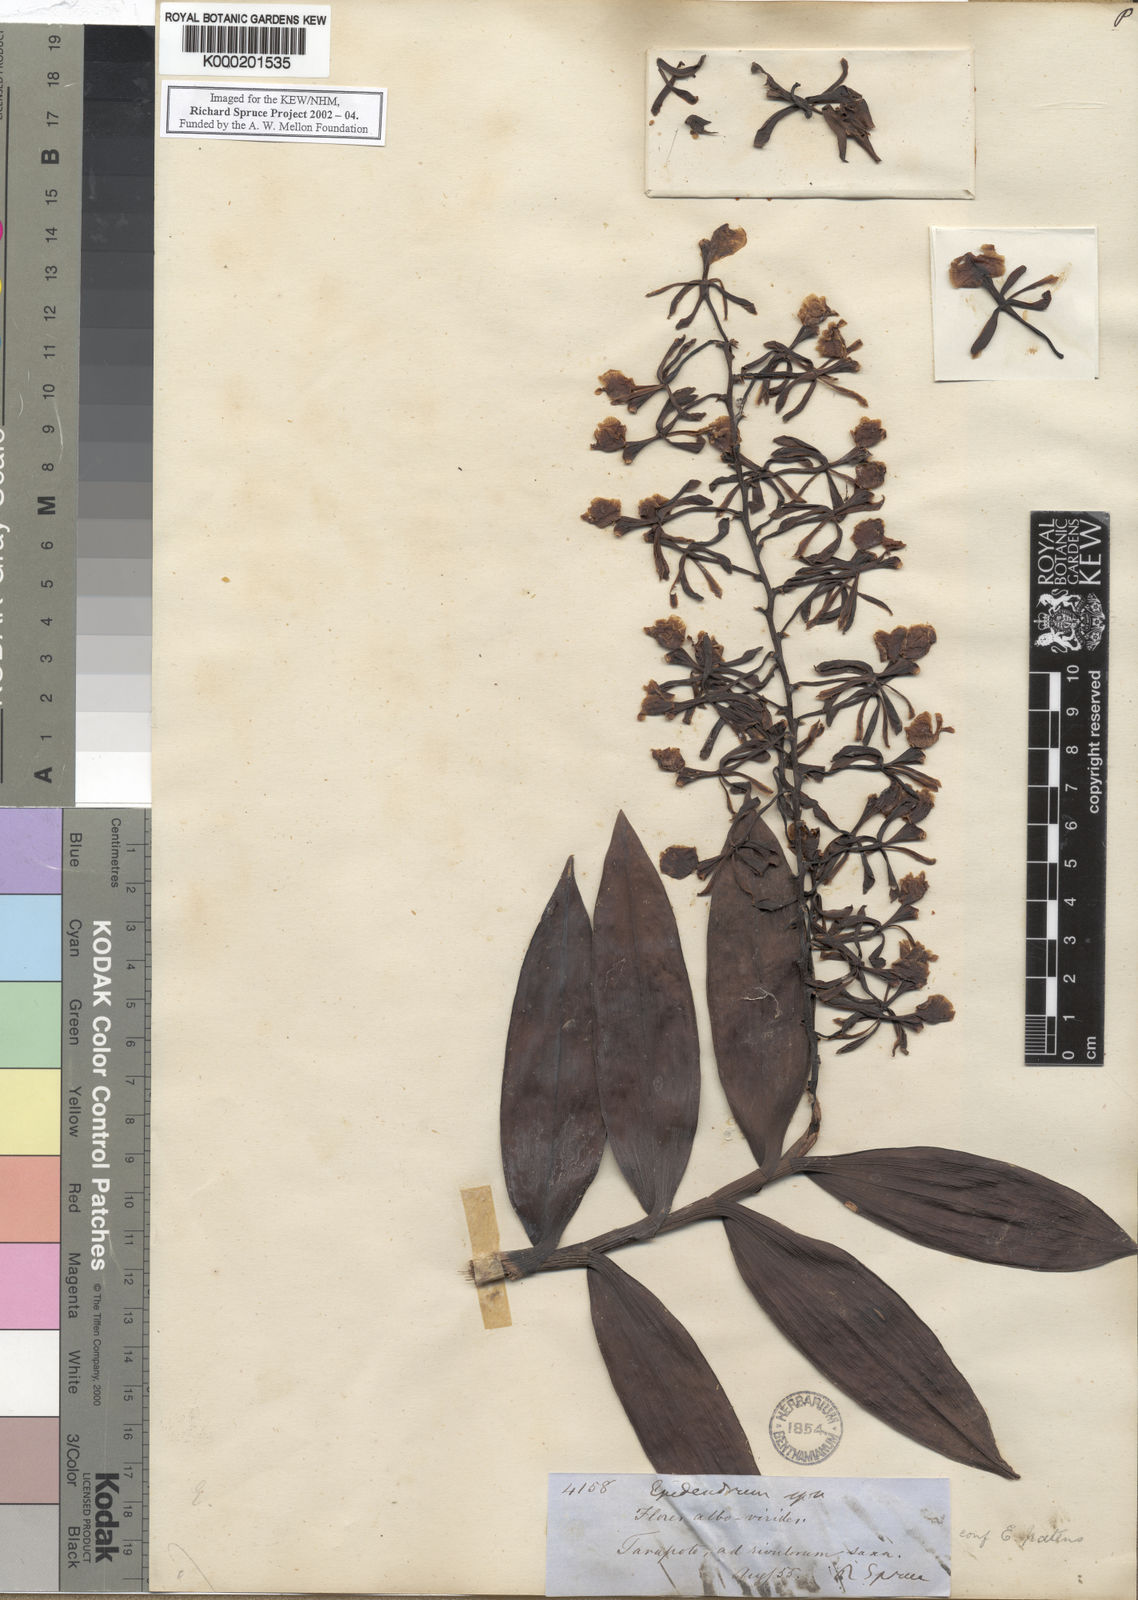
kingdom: Plantae
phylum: Tracheophyta
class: Liliopsida
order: Asparagales
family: Orchidaceae
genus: Epidendrum
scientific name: Epidendrum
